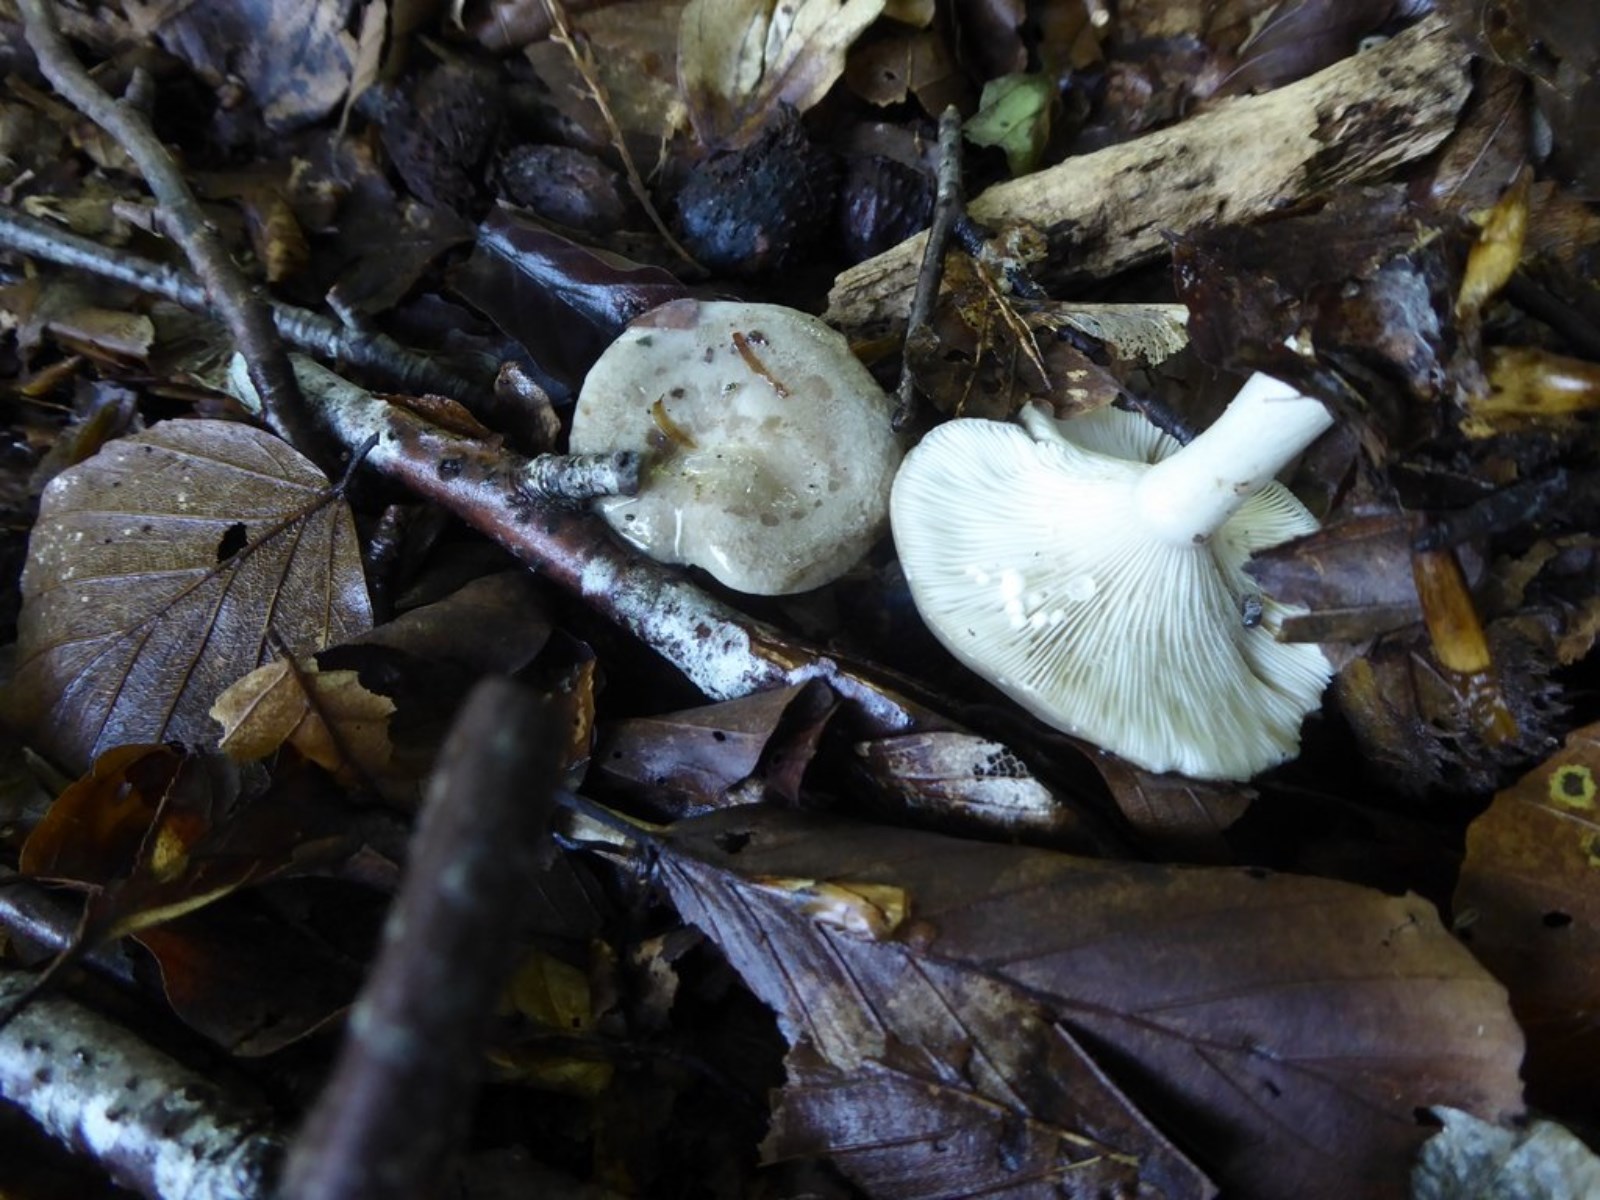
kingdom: Fungi
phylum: Basidiomycota
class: Agaricomycetes
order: Russulales
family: Russulaceae
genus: Lactarius
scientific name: Lactarius blennius
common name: dråbeplettet mælkehat
